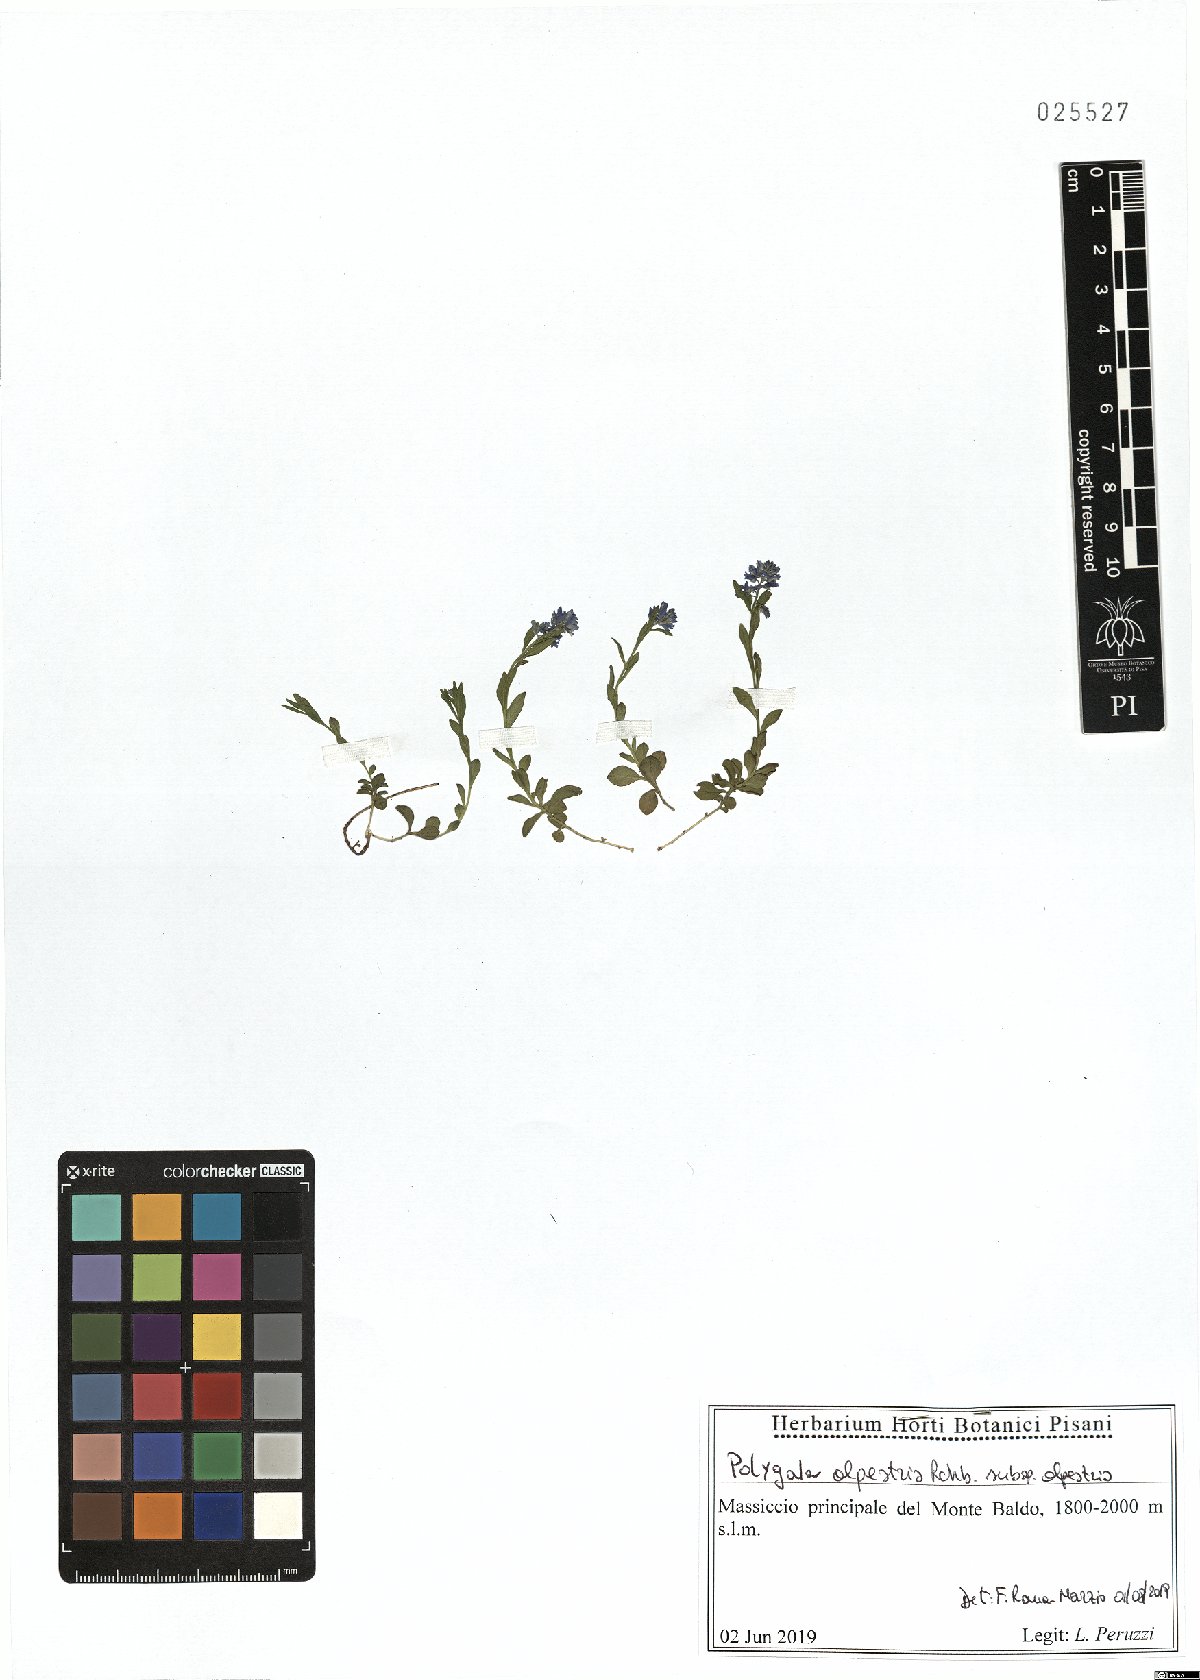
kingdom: Plantae
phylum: Tracheophyta
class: Magnoliopsida
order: Fabales
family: Polygalaceae
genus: Polygala
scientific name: Polygala alpestris
